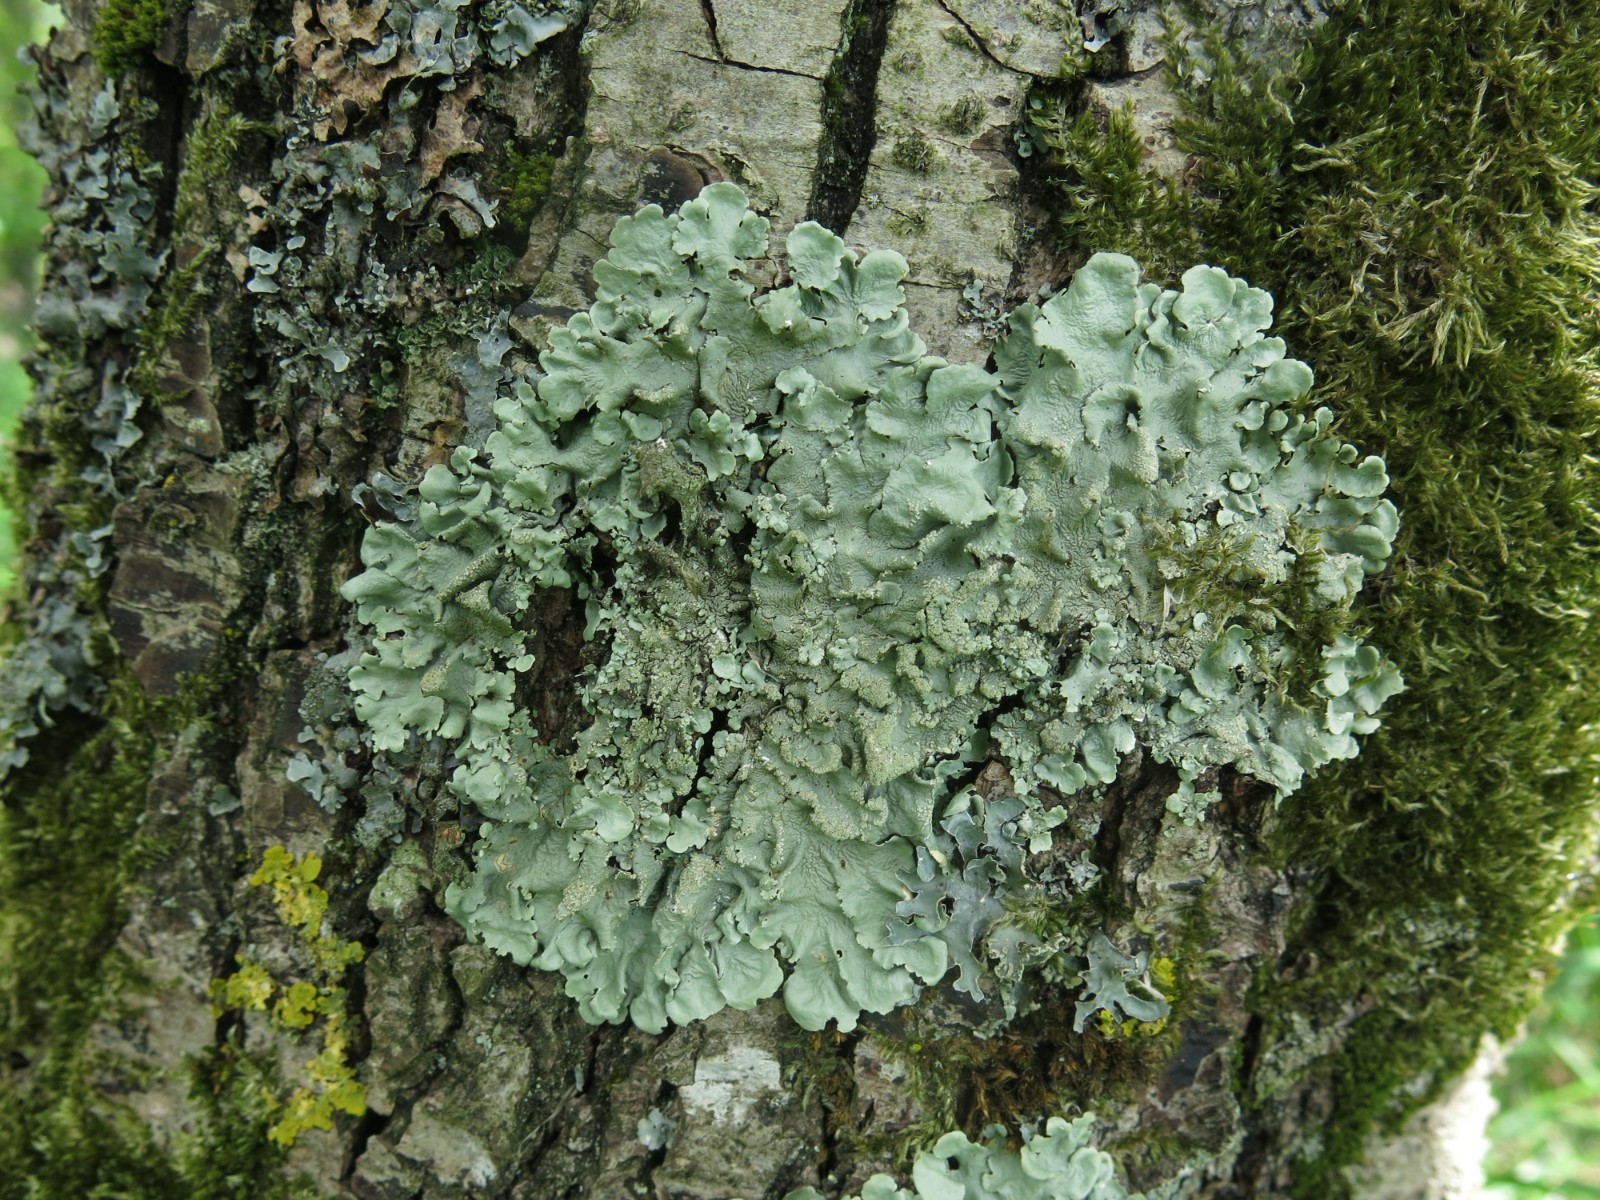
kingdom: Fungi
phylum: Ascomycota
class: Lecanoromycetes
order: Lecanorales
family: Parmeliaceae
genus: Flavoparmelia
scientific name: Flavoparmelia caperata
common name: gulgrøn skållav
